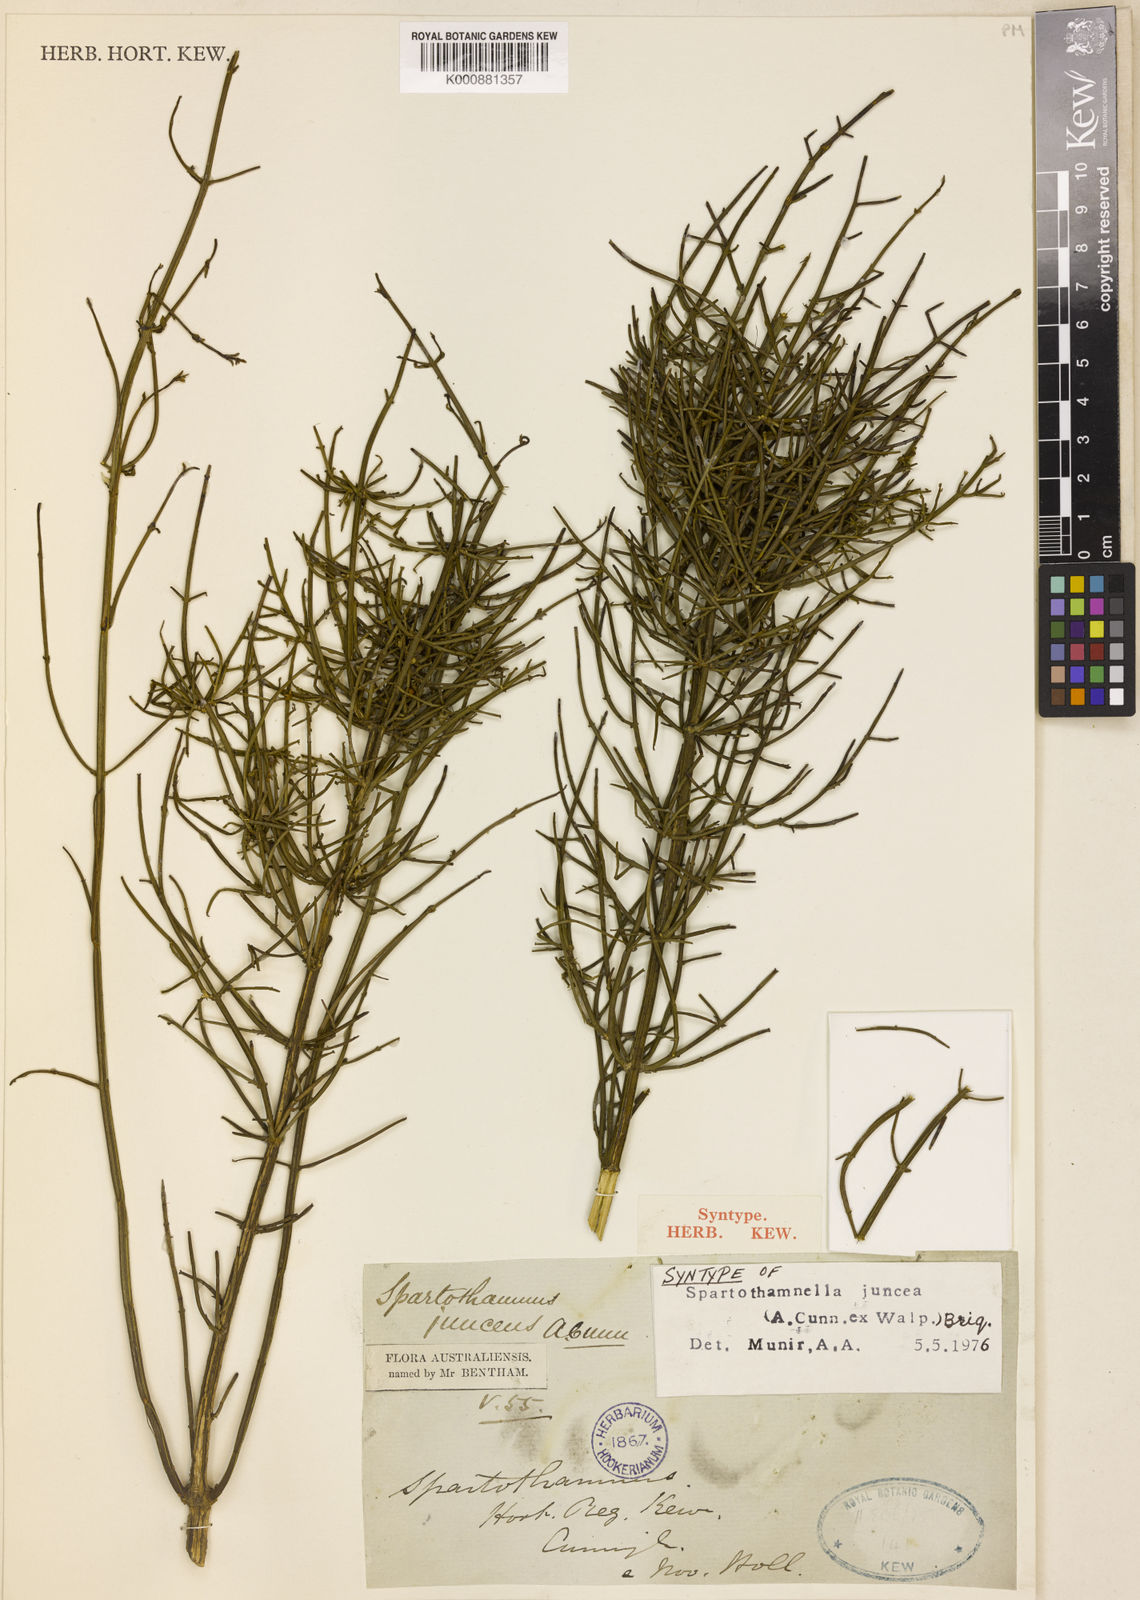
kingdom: Plantae
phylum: Tracheophyta
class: Magnoliopsida
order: Lamiales
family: Lamiaceae
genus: Teucrium
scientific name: Teucrium junceum
